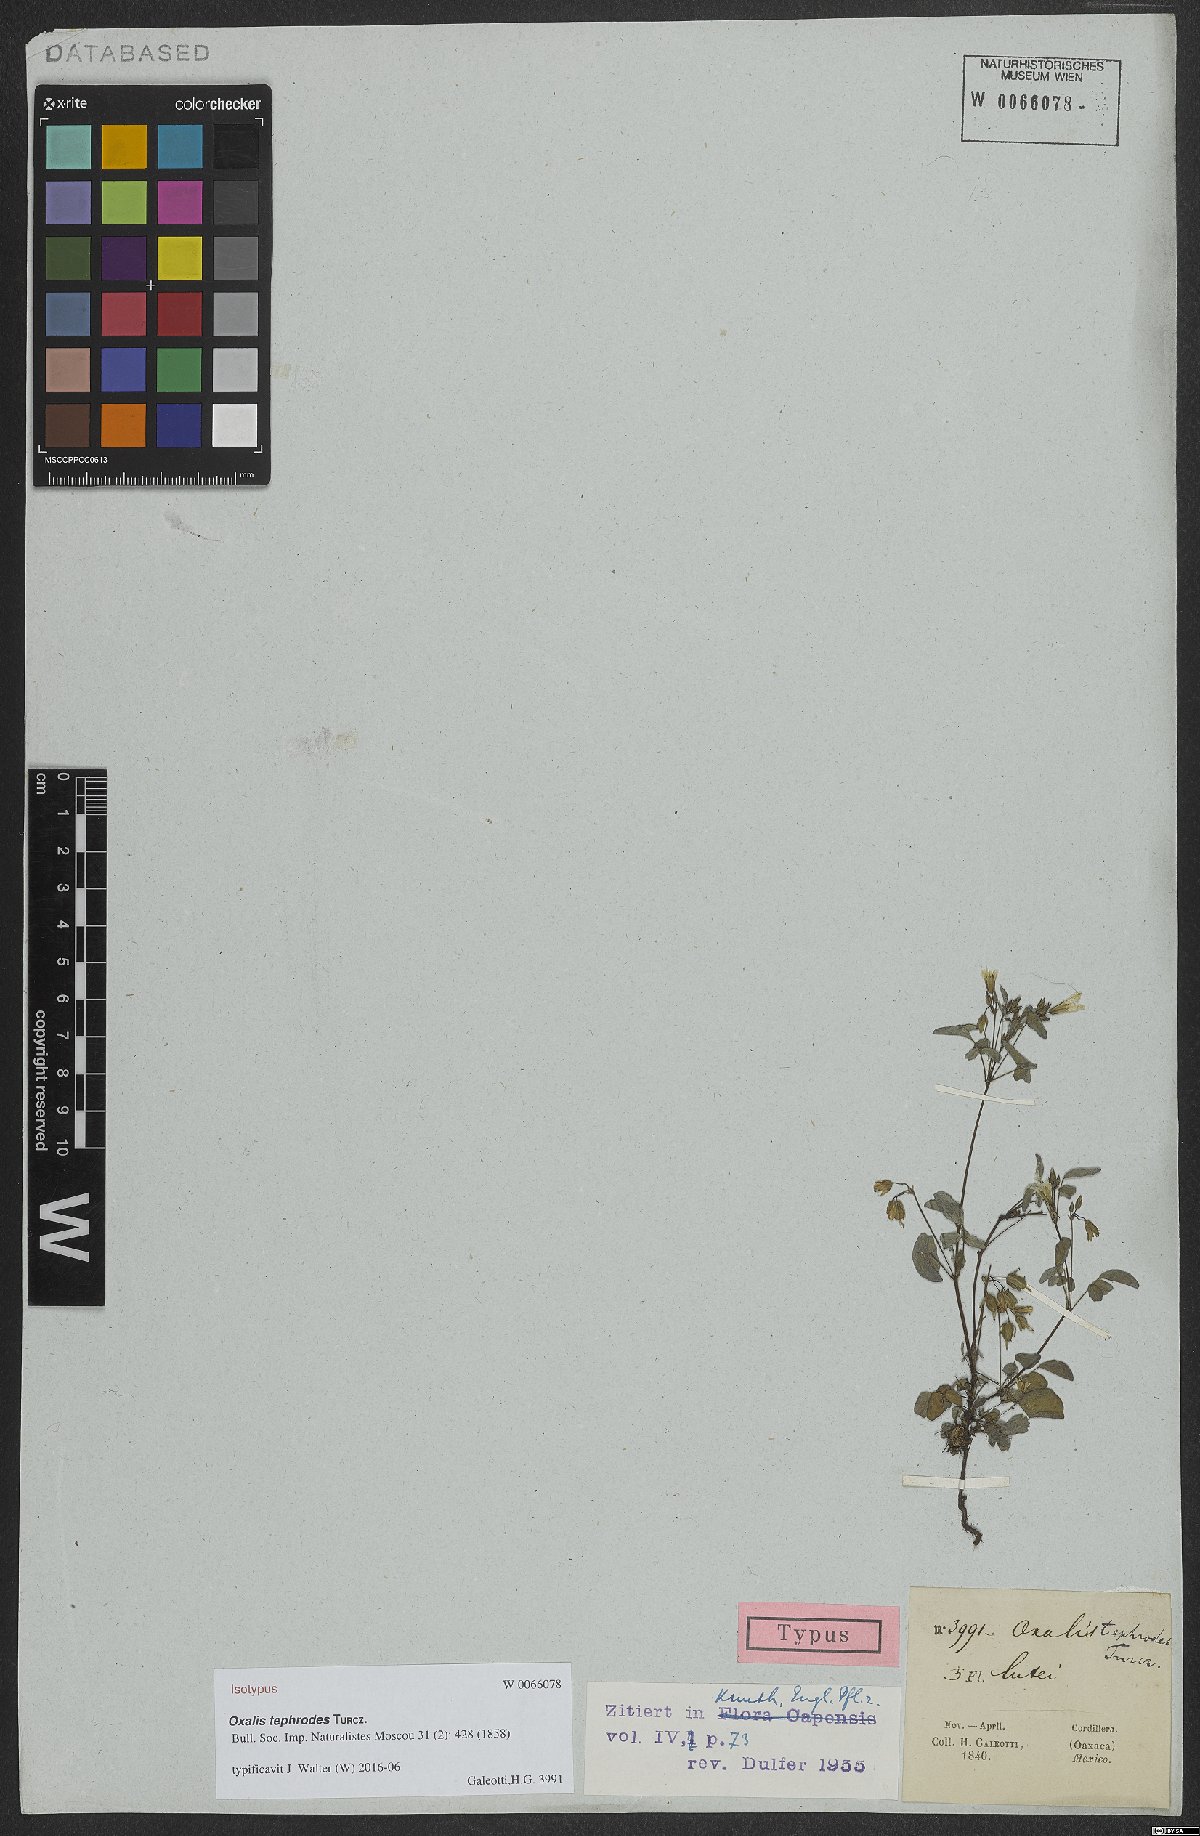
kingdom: Plantae
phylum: Tracheophyta
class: Magnoliopsida
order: Oxalidales
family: Oxalidaceae
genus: Oxalis
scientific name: Oxalis frutescens
